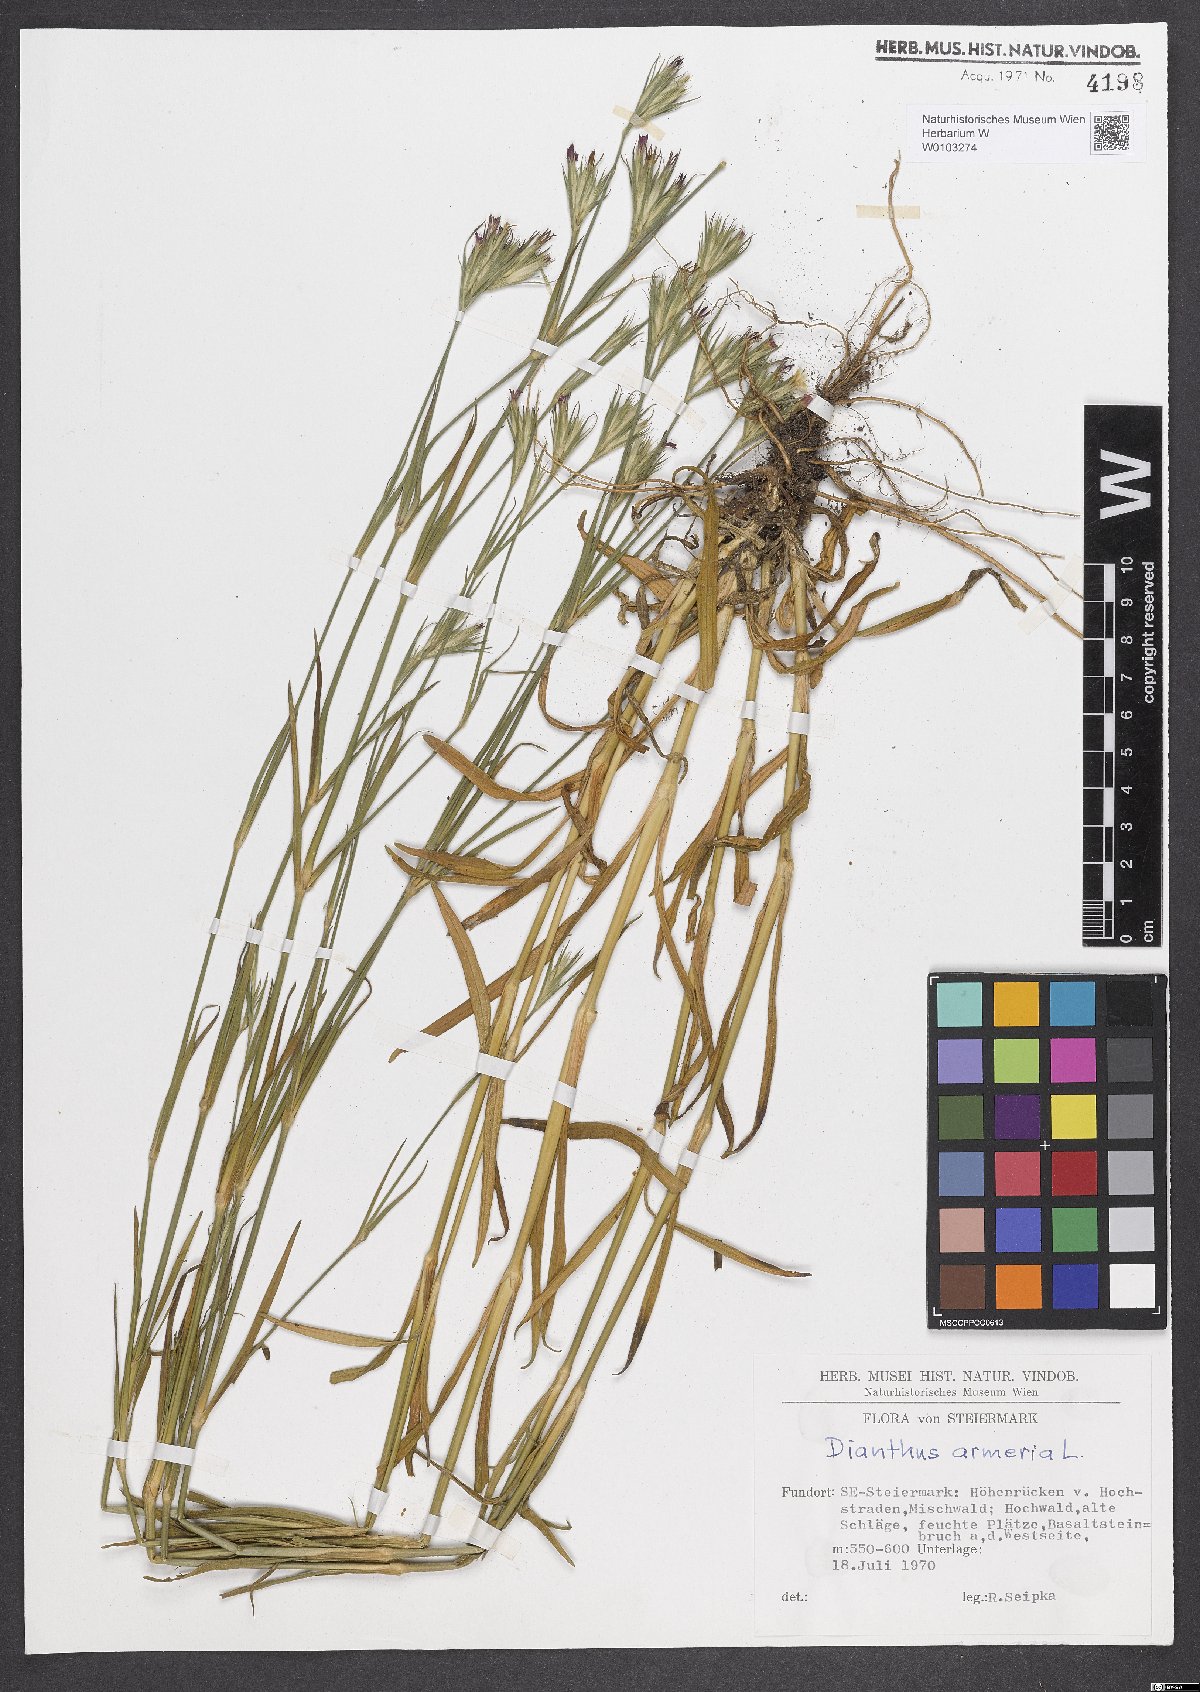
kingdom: Plantae
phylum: Tracheophyta
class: Magnoliopsida
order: Caryophyllales
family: Caryophyllaceae
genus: Dianthus
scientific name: Dianthus armeria
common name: Deptford pink
